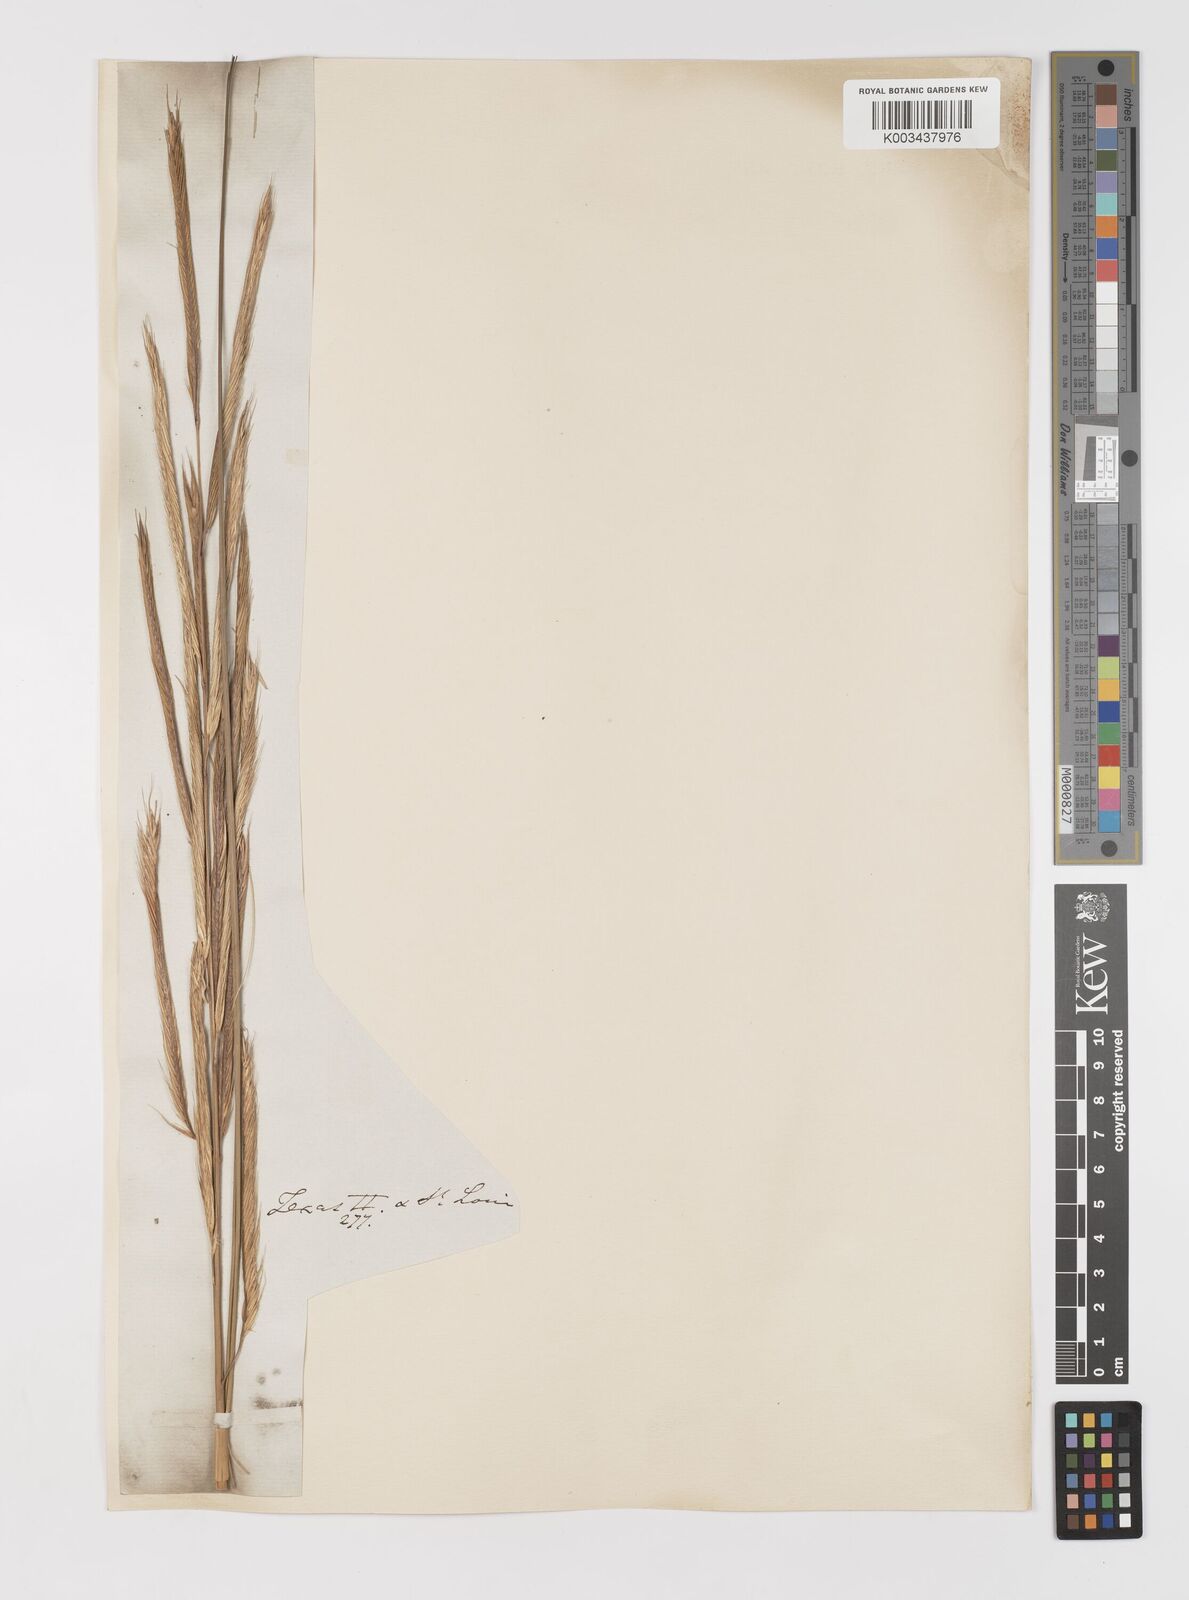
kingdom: Plantae
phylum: Tracheophyta
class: Liliopsida
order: Poales
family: Poaceae
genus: Sporobolus
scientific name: Sporobolus michauxianus
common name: Freshwater cordgrass
